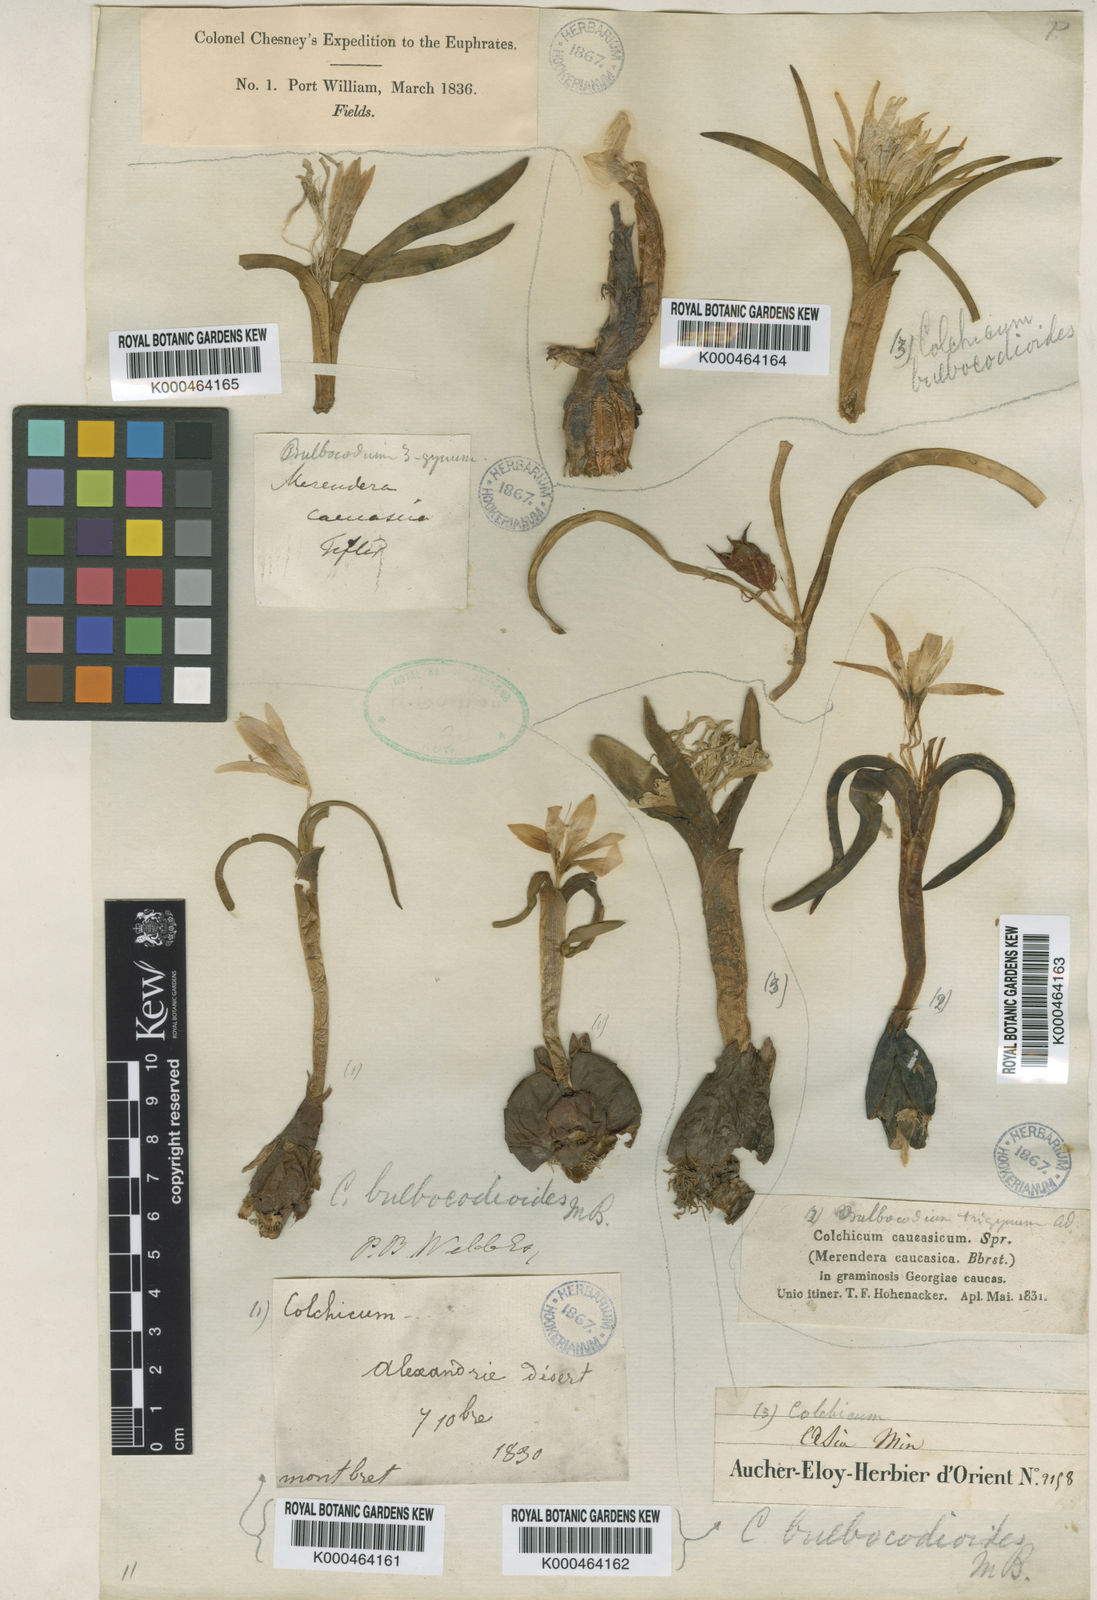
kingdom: Plantae
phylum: Tracheophyta
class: Liliopsida
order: Liliales
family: Colchicaceae
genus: Colchicum
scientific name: Colchicum sieheanum
